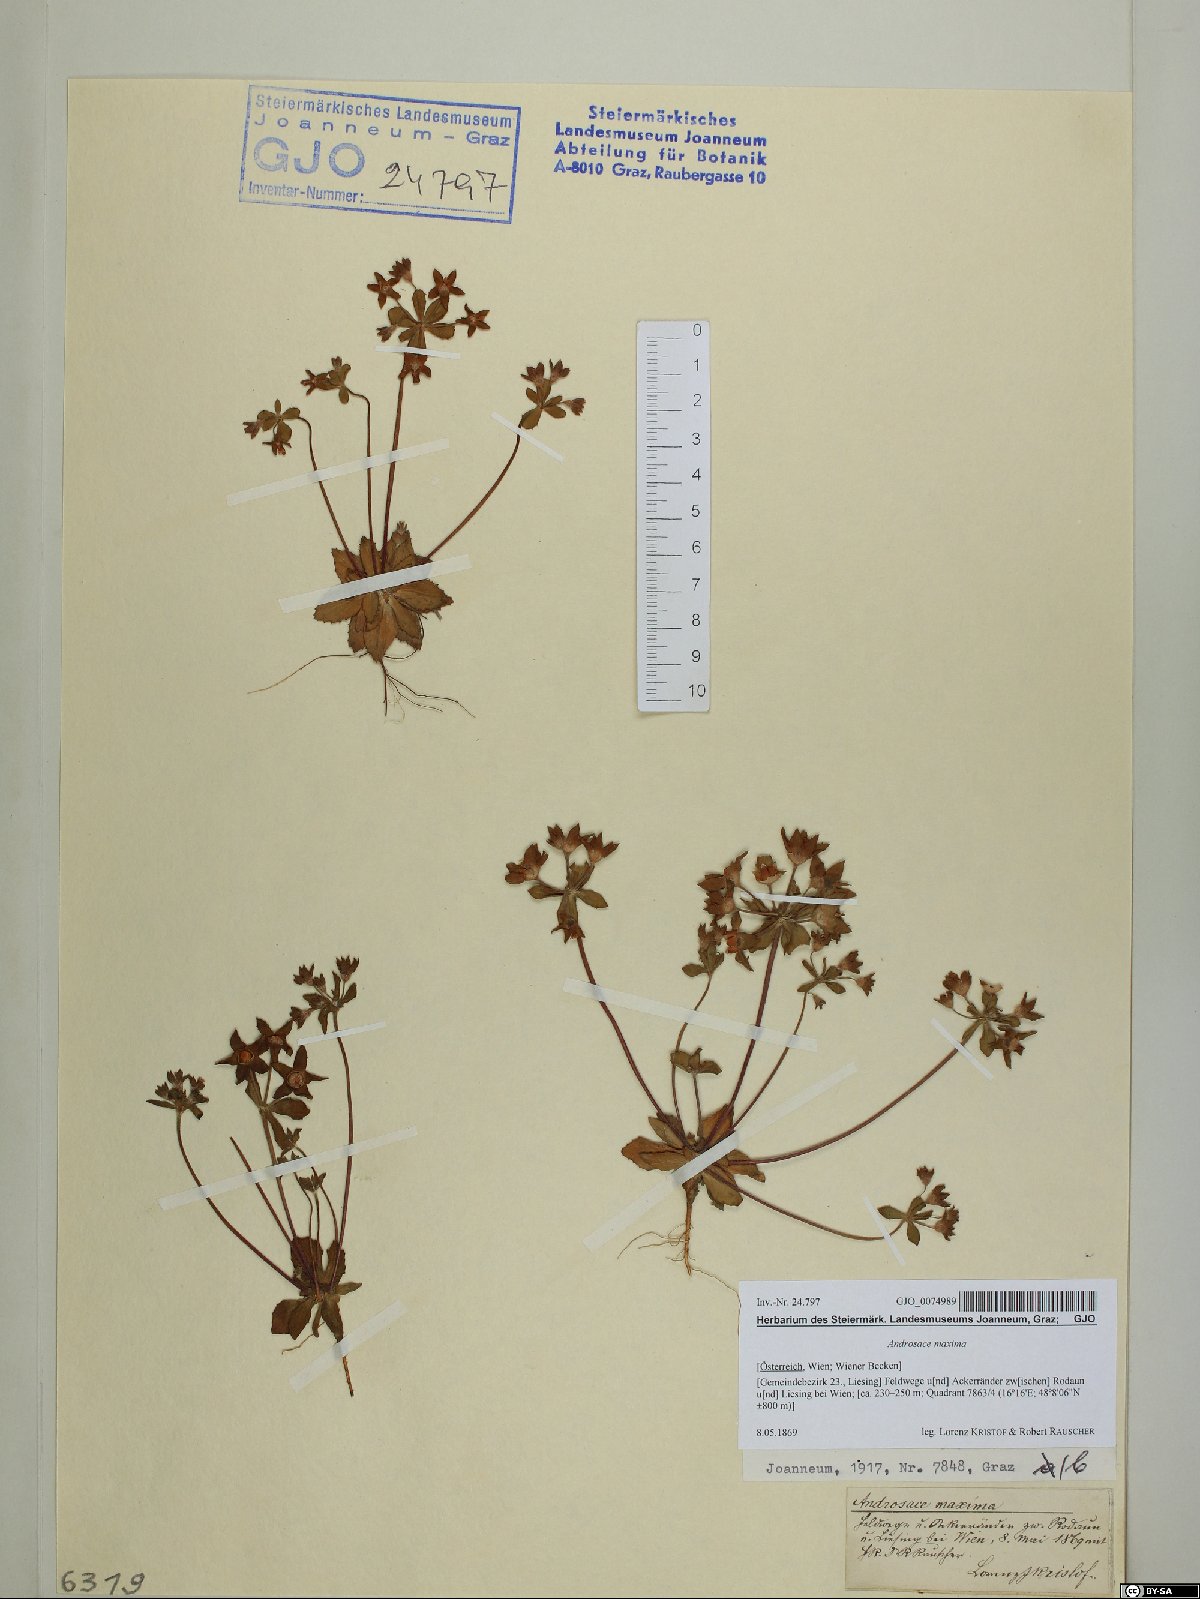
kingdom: Plantae
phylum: Tracheophyta
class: Magnoliopsida
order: Ericales
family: Primulaceae
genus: Androsace
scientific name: Androsace maxima
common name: Annual androsace
